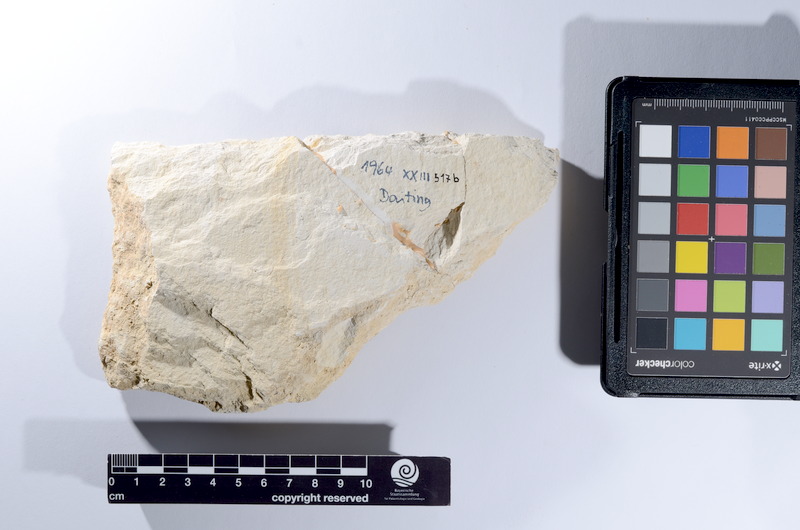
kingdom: Animalia
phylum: Chordata
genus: Thrissops
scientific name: Thrissops
